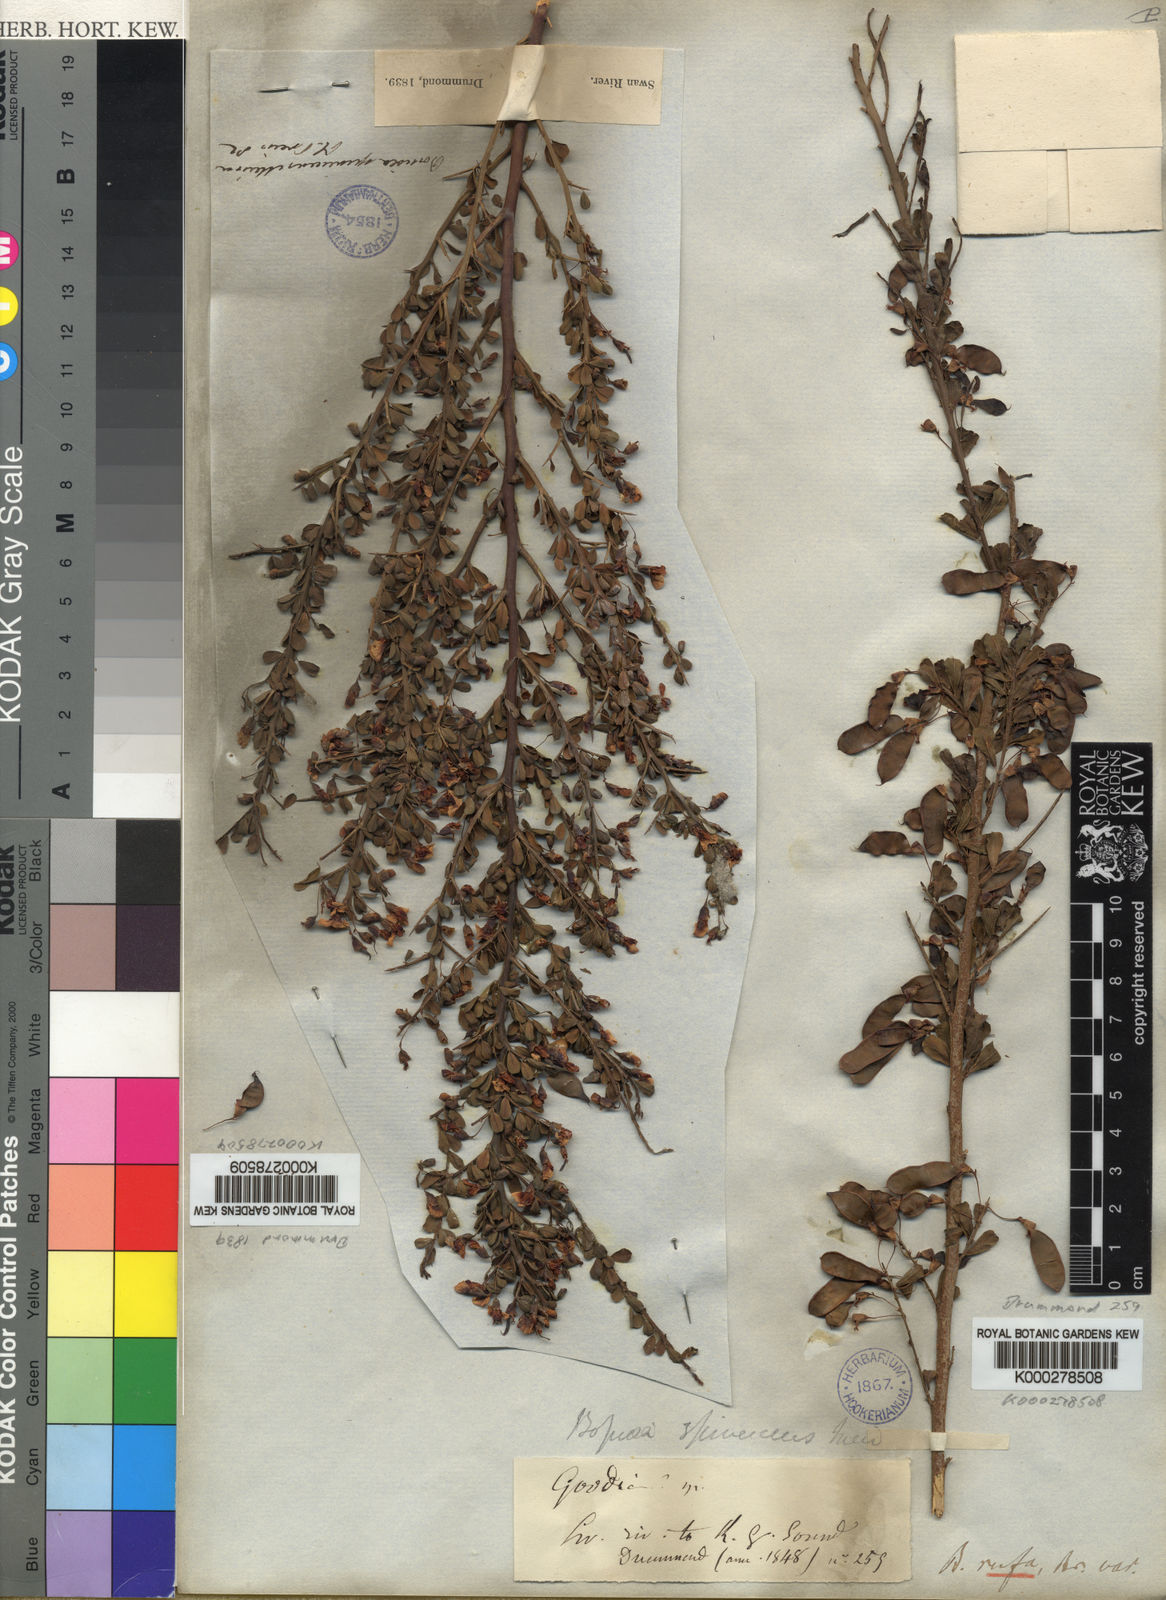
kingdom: Plantae
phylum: Tracheophyta
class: Magnoliopsida
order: Fabales
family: Fabaceae
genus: Bossiaea
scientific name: Bossiaea rufa
